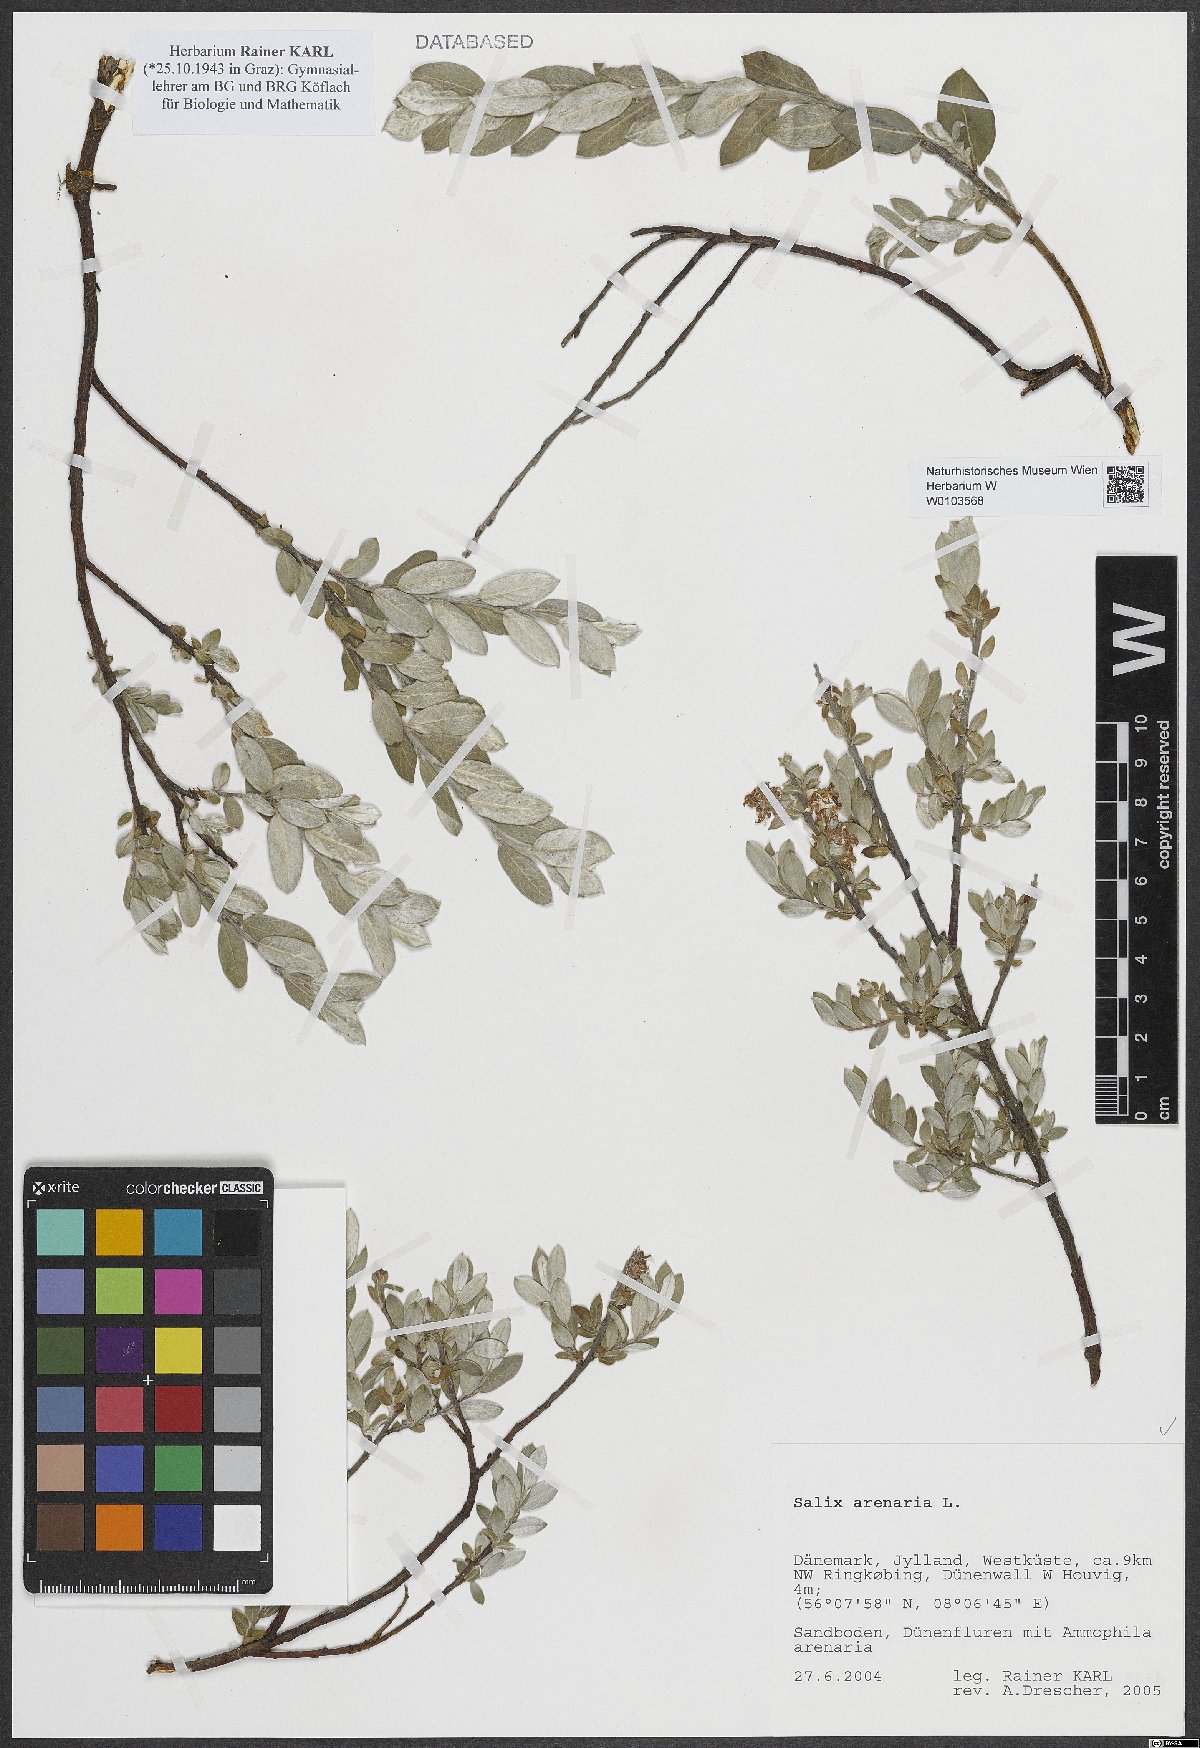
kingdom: Plantae
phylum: Tracheophyta
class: Magnoliopsida
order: Malpighiales
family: Salicaceae
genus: Salix
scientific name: Salix repens
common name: Creeping willow
